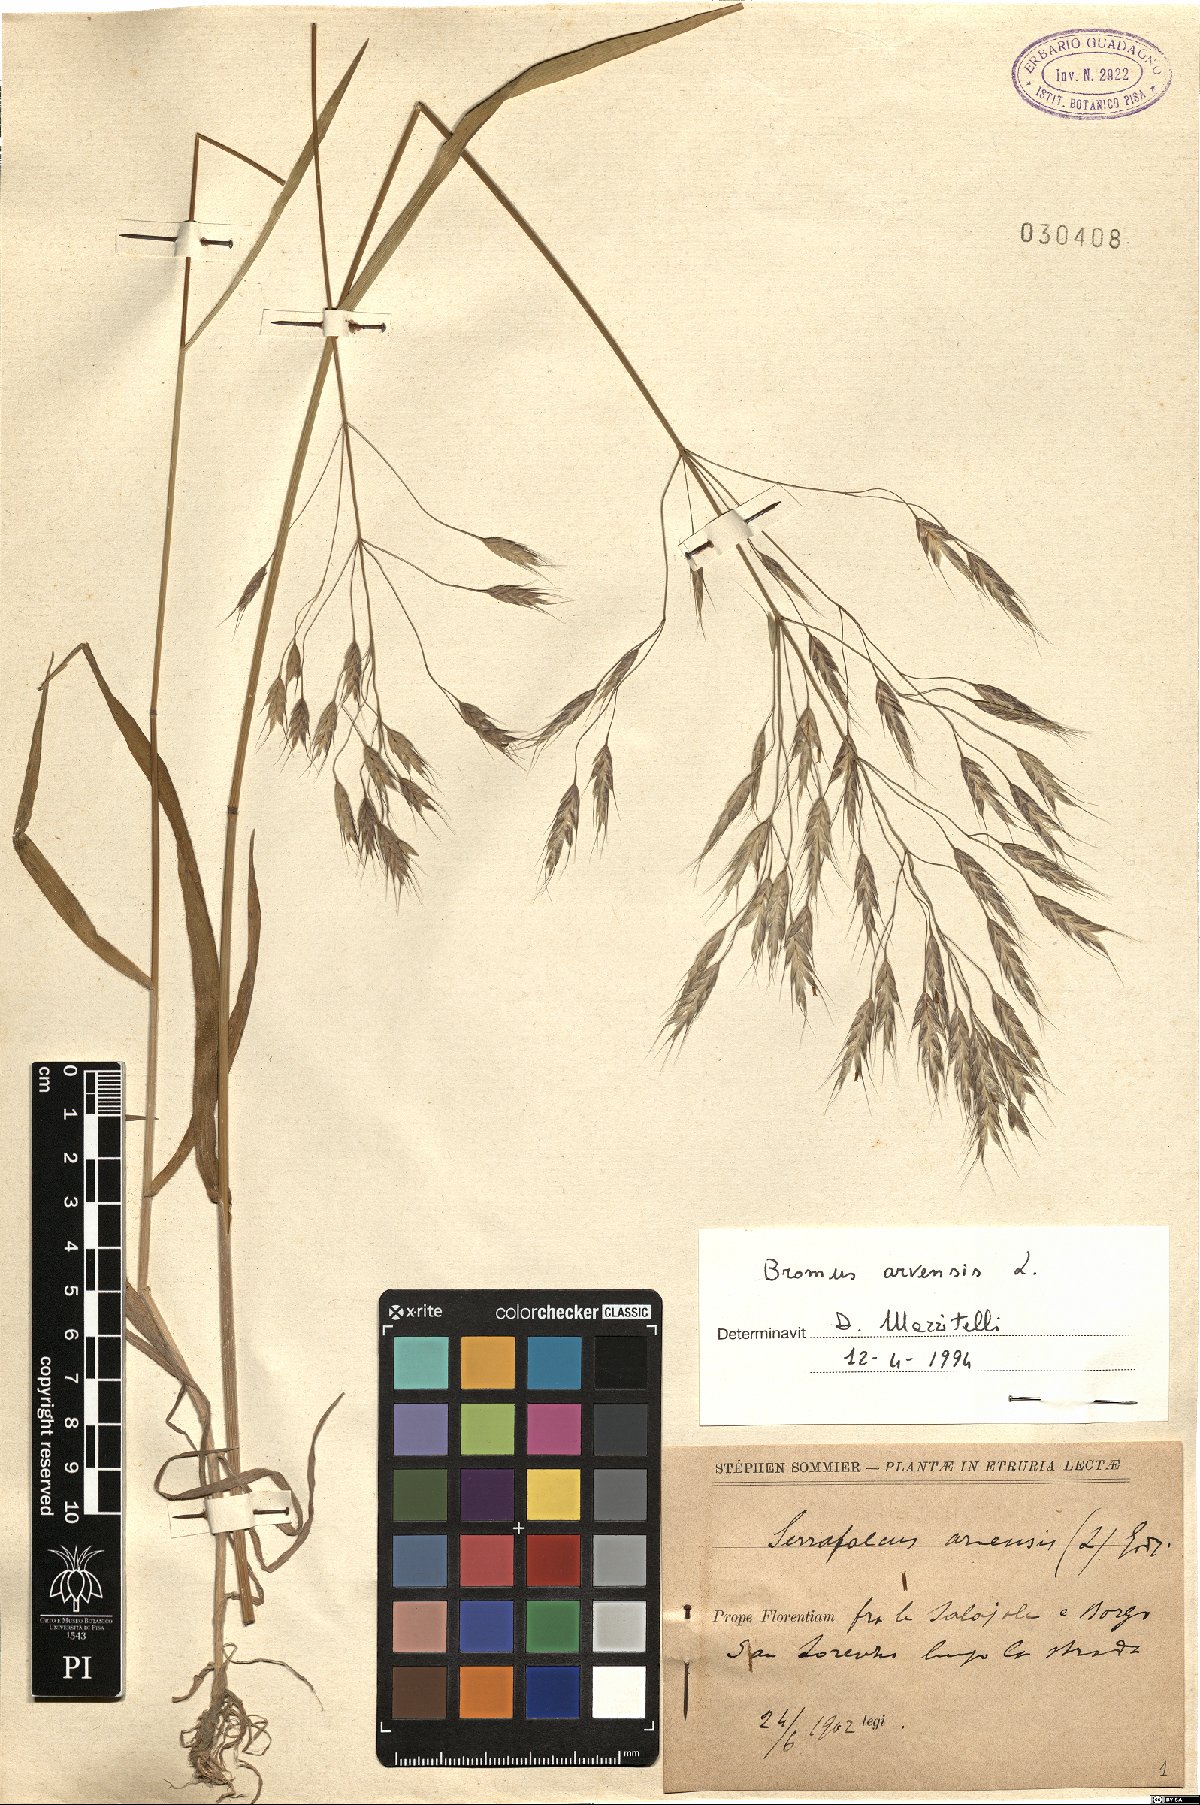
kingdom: Plantae
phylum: Tracheophyta
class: Liliopsida
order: Poales
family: Poaceae
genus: Bromus
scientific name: Bromus arvensis
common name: Field brome
